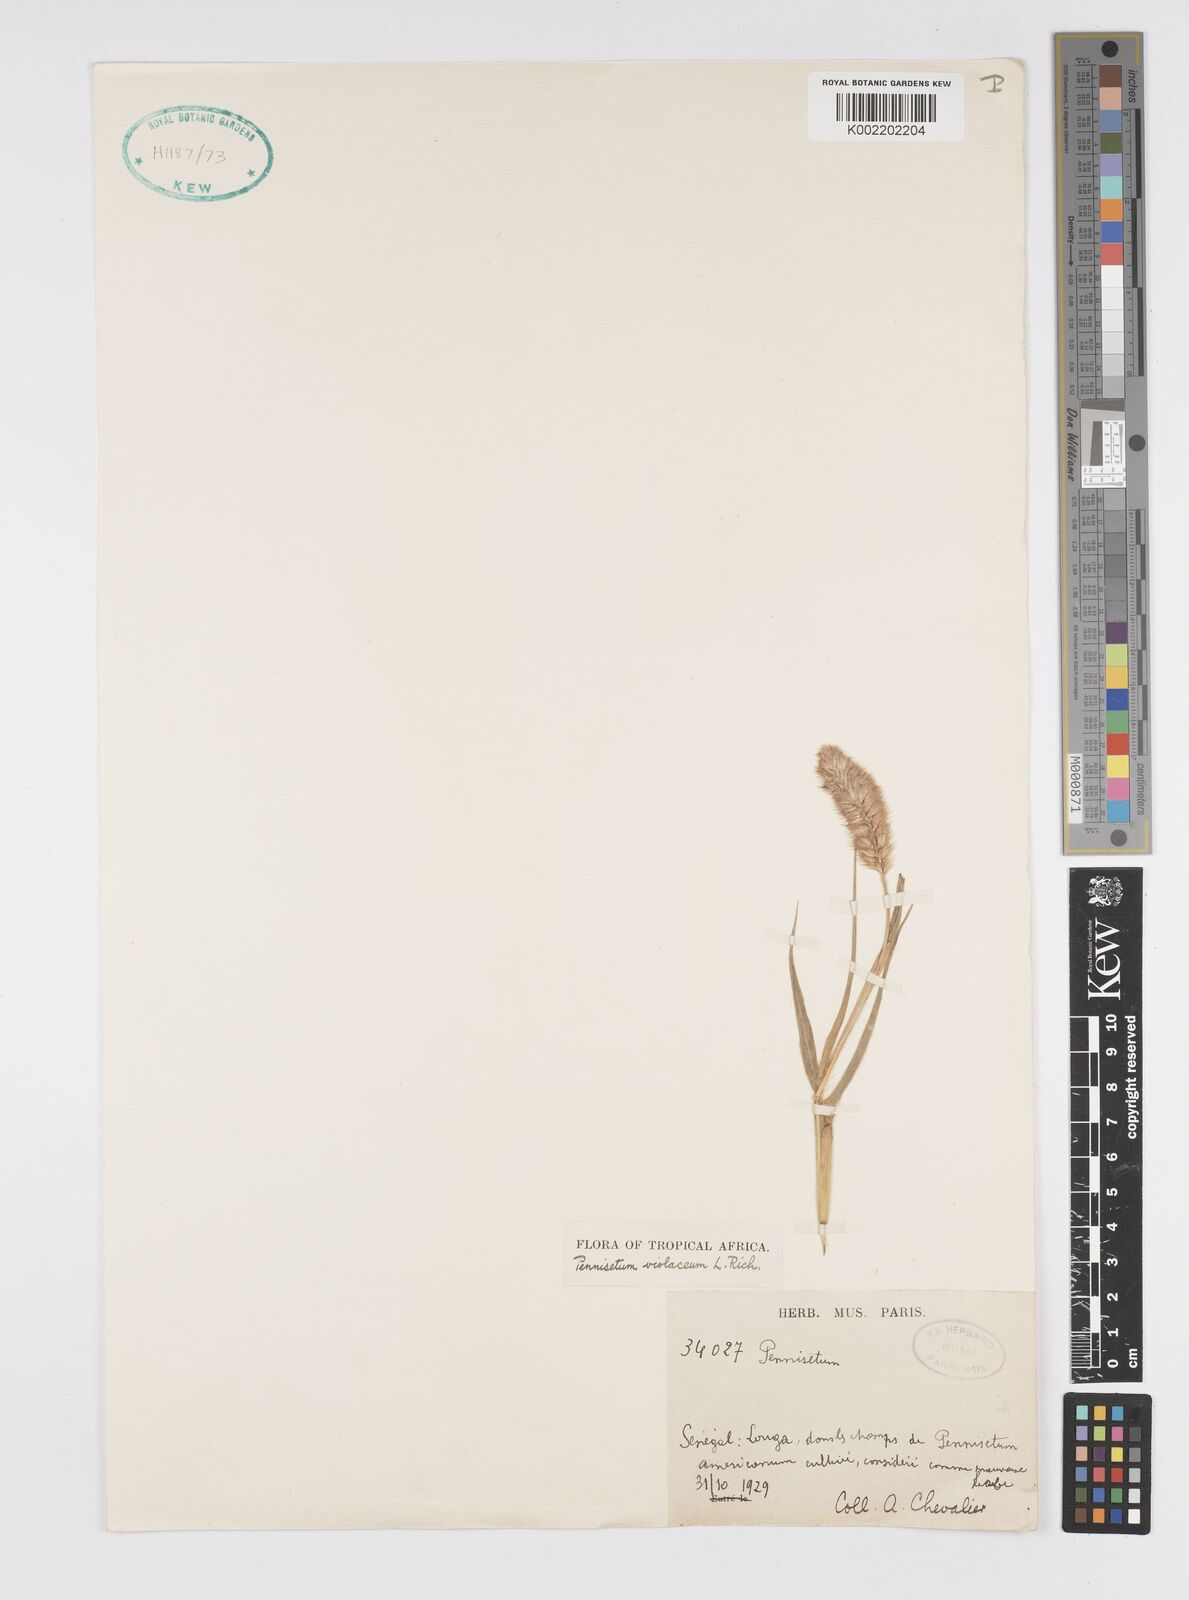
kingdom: Plantae
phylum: Tracheophyta
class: Liliopsida
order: Poales
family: Poaceae
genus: Cenchrus
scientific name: Cenchrus violaceus
